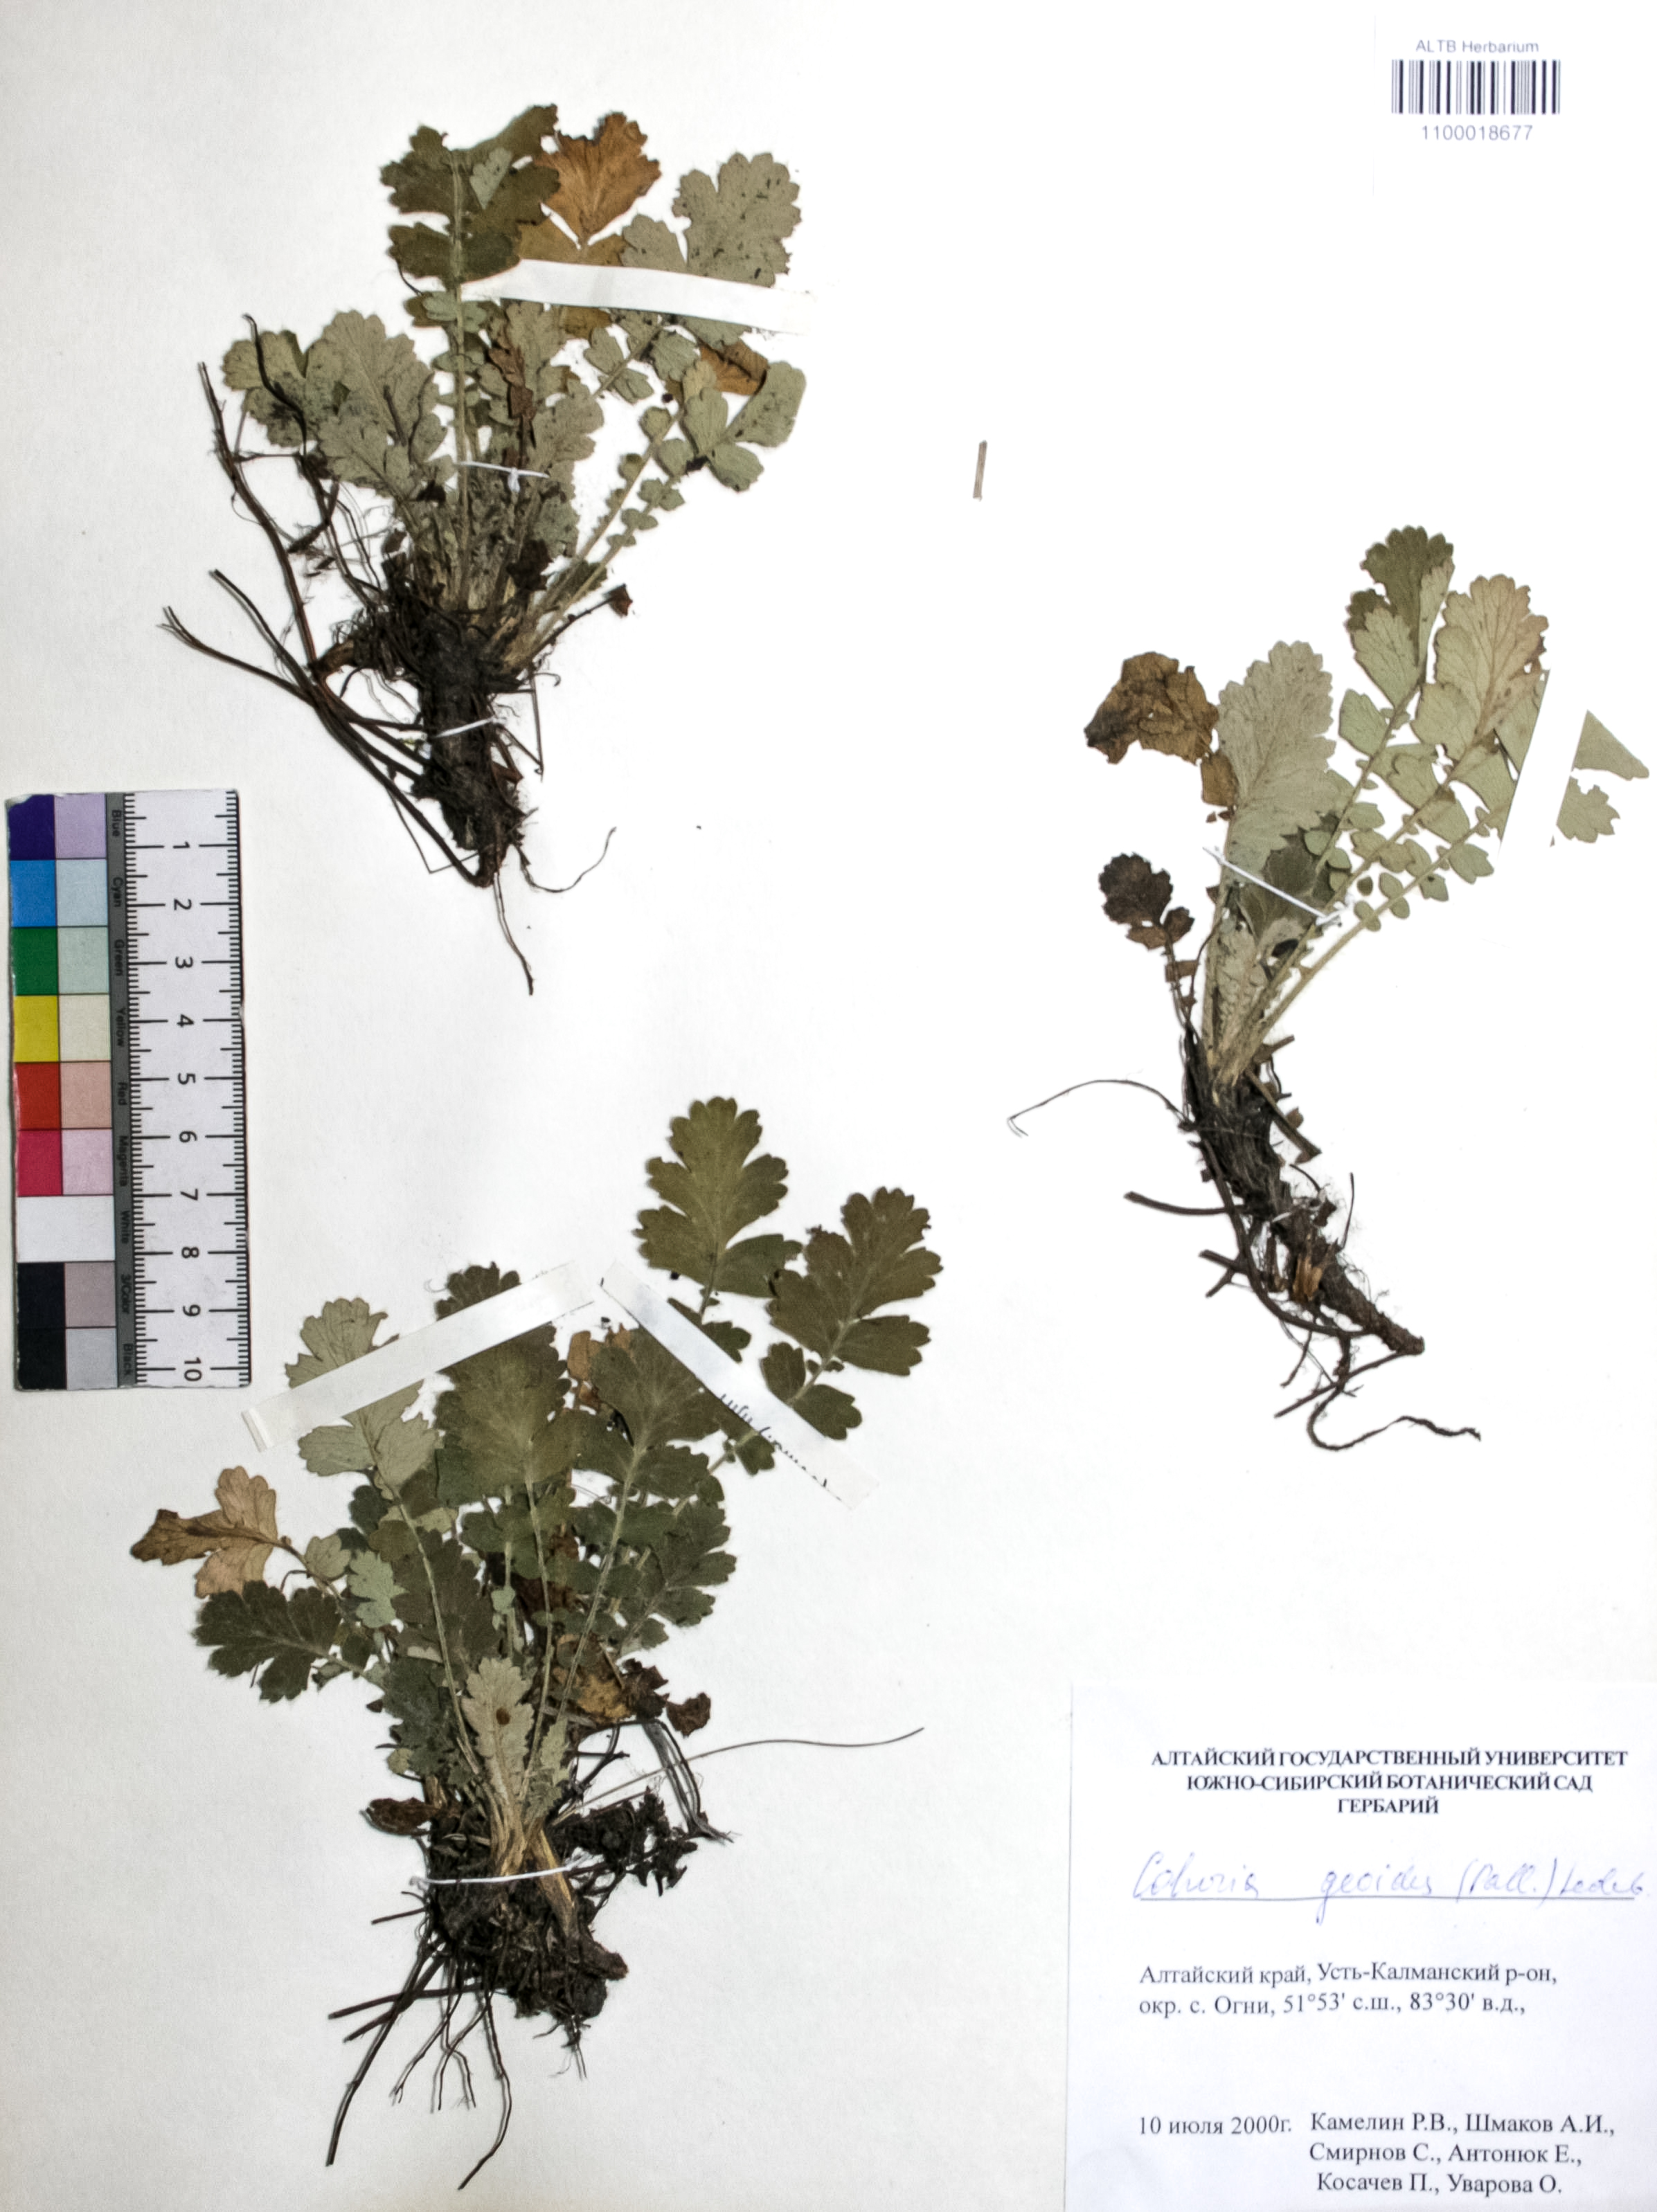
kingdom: Plantae
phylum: Tracheophyta
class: Magnoliopsida
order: Rosales
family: Rosaceae
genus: Geum
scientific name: Geum geoides
